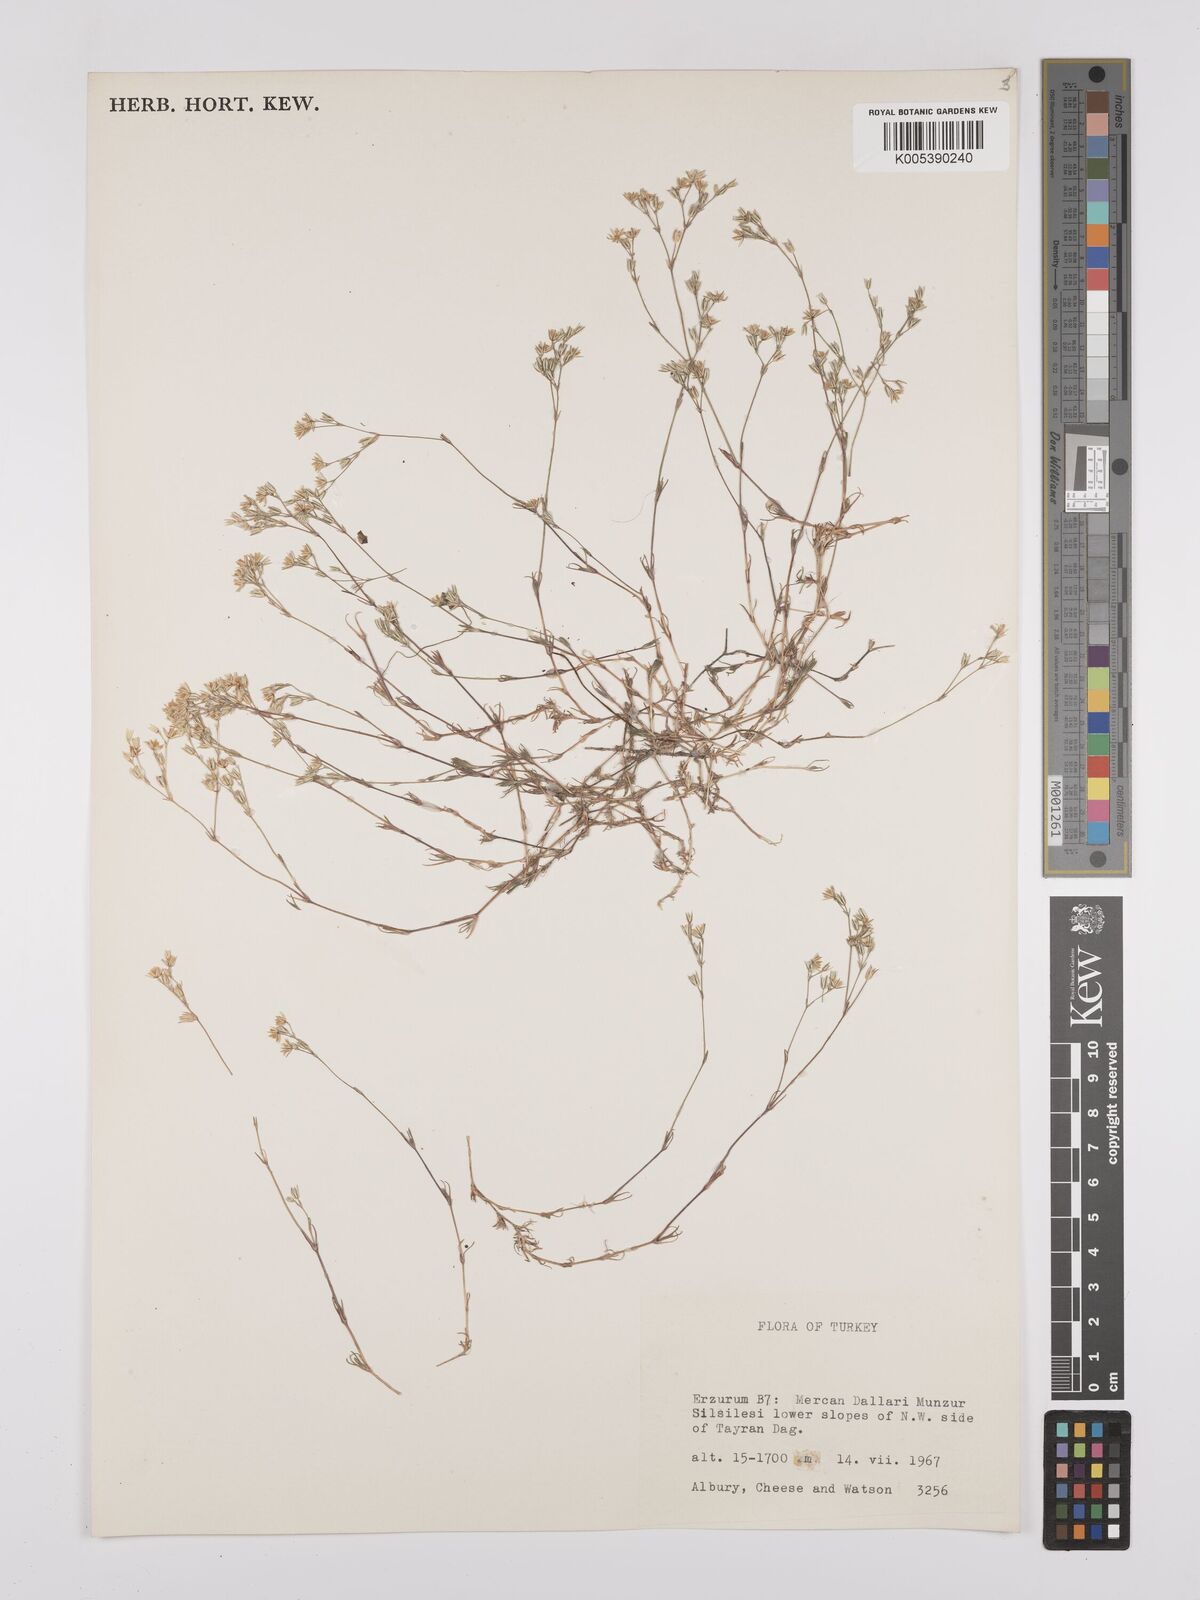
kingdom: Plantae
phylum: Tracheophyta
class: Magnoliopsida
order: Caryophyllales
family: Caryophyllaceae
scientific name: Caryophyllaceae
